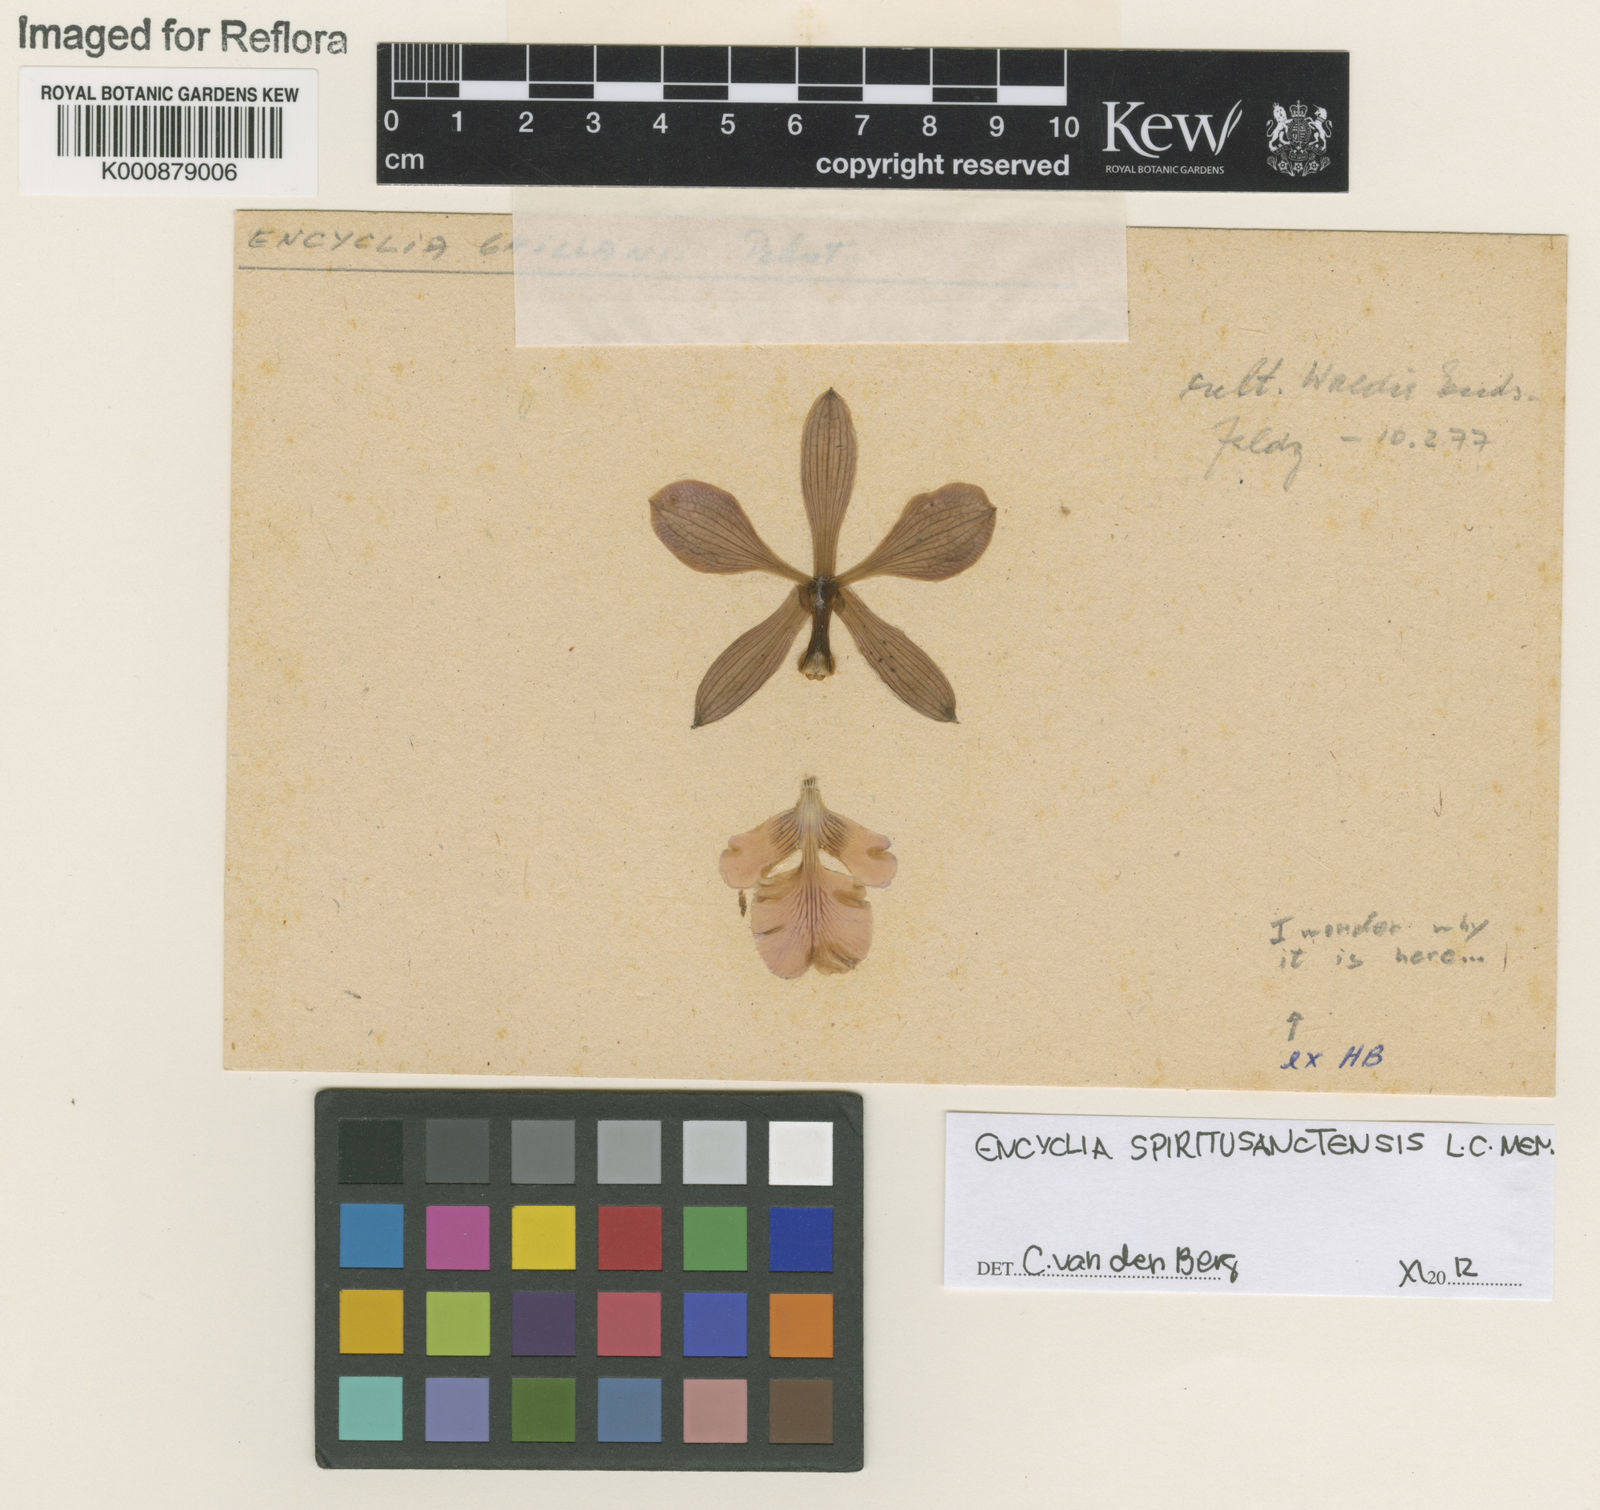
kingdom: Plantae
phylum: Tracheophyta
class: Liliopsida
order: Asparagales
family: Orchidaceae
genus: Encyclia
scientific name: Encyclia spiritusanctensis
